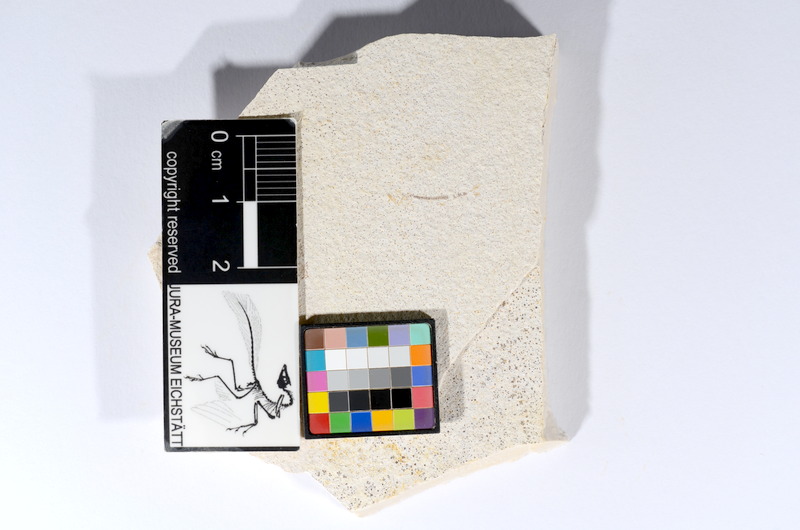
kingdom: Animalia
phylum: Chordata
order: Salmoniformes
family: Orthogonikleithridae
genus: Orthogonikleithrus
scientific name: Orthogonikleithrus hoelli
